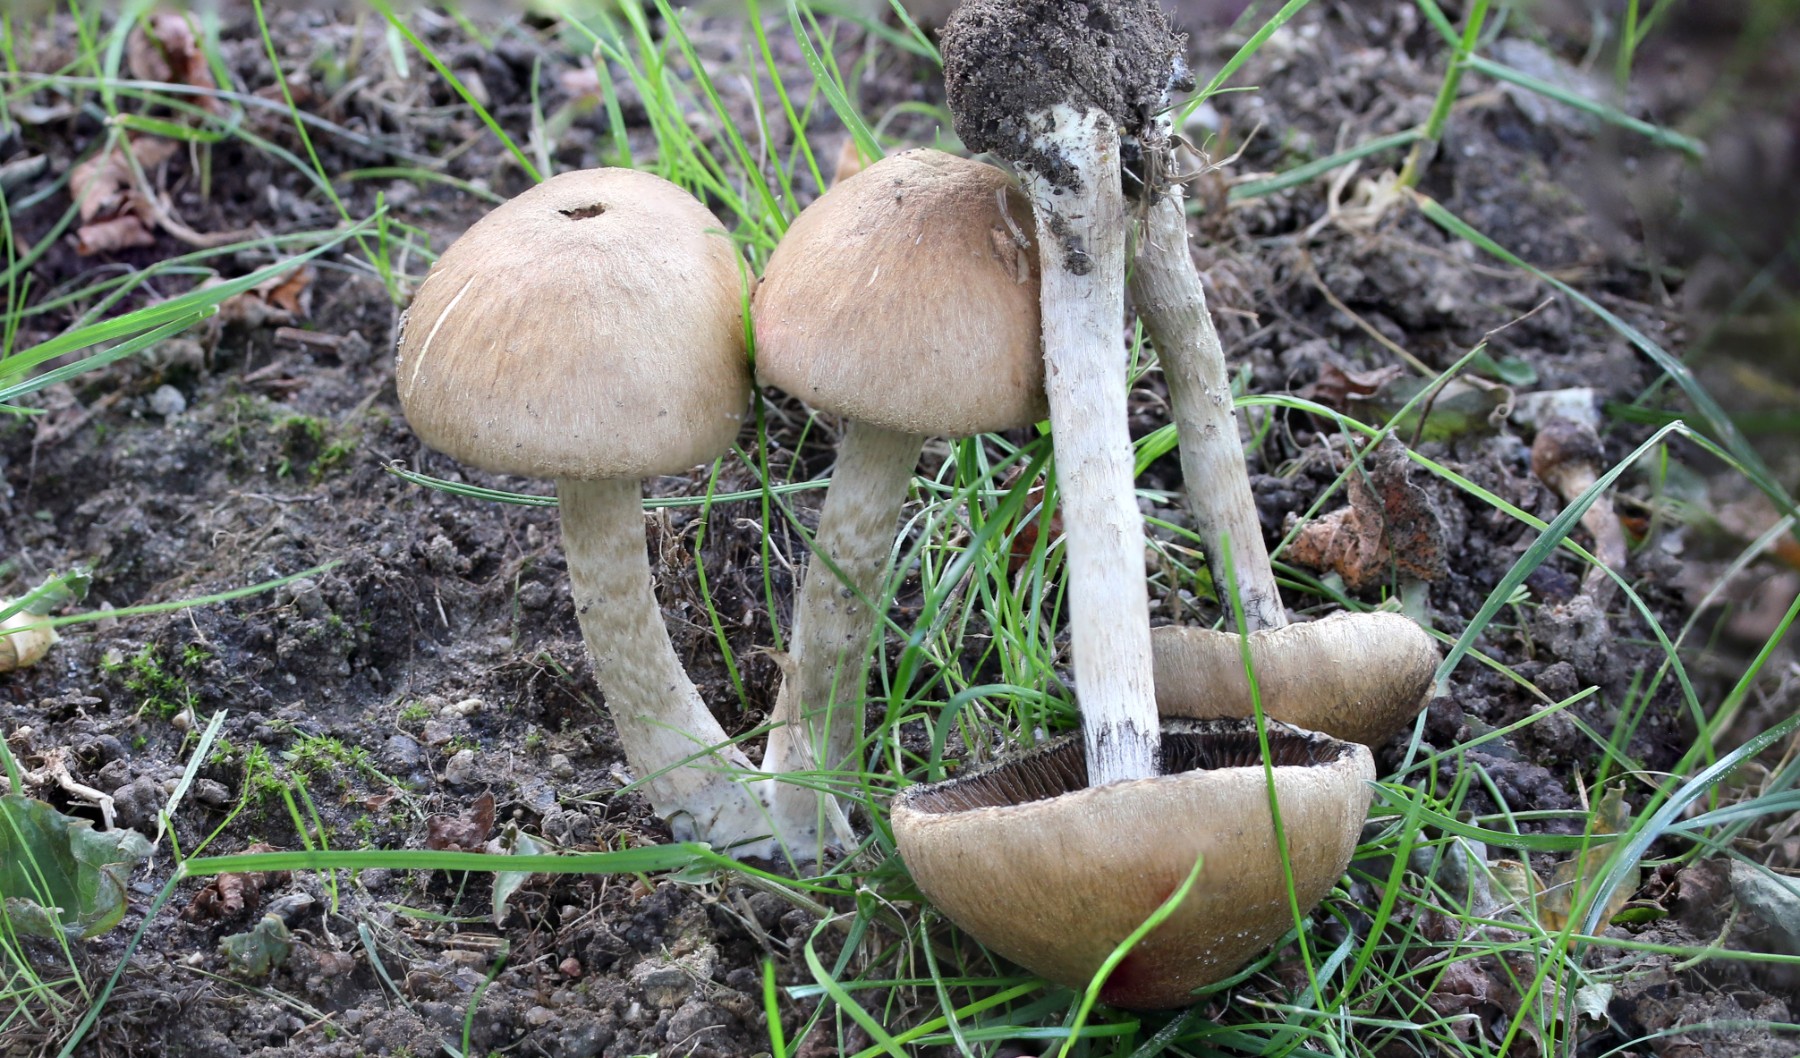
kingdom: Fungi
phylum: Basidiomycota
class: Agaricomycetes
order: Agaricales
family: Psathyrellaceae
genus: Lacrymaria
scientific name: Lacrymaria lacrymabunda
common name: grædende mørkhat
